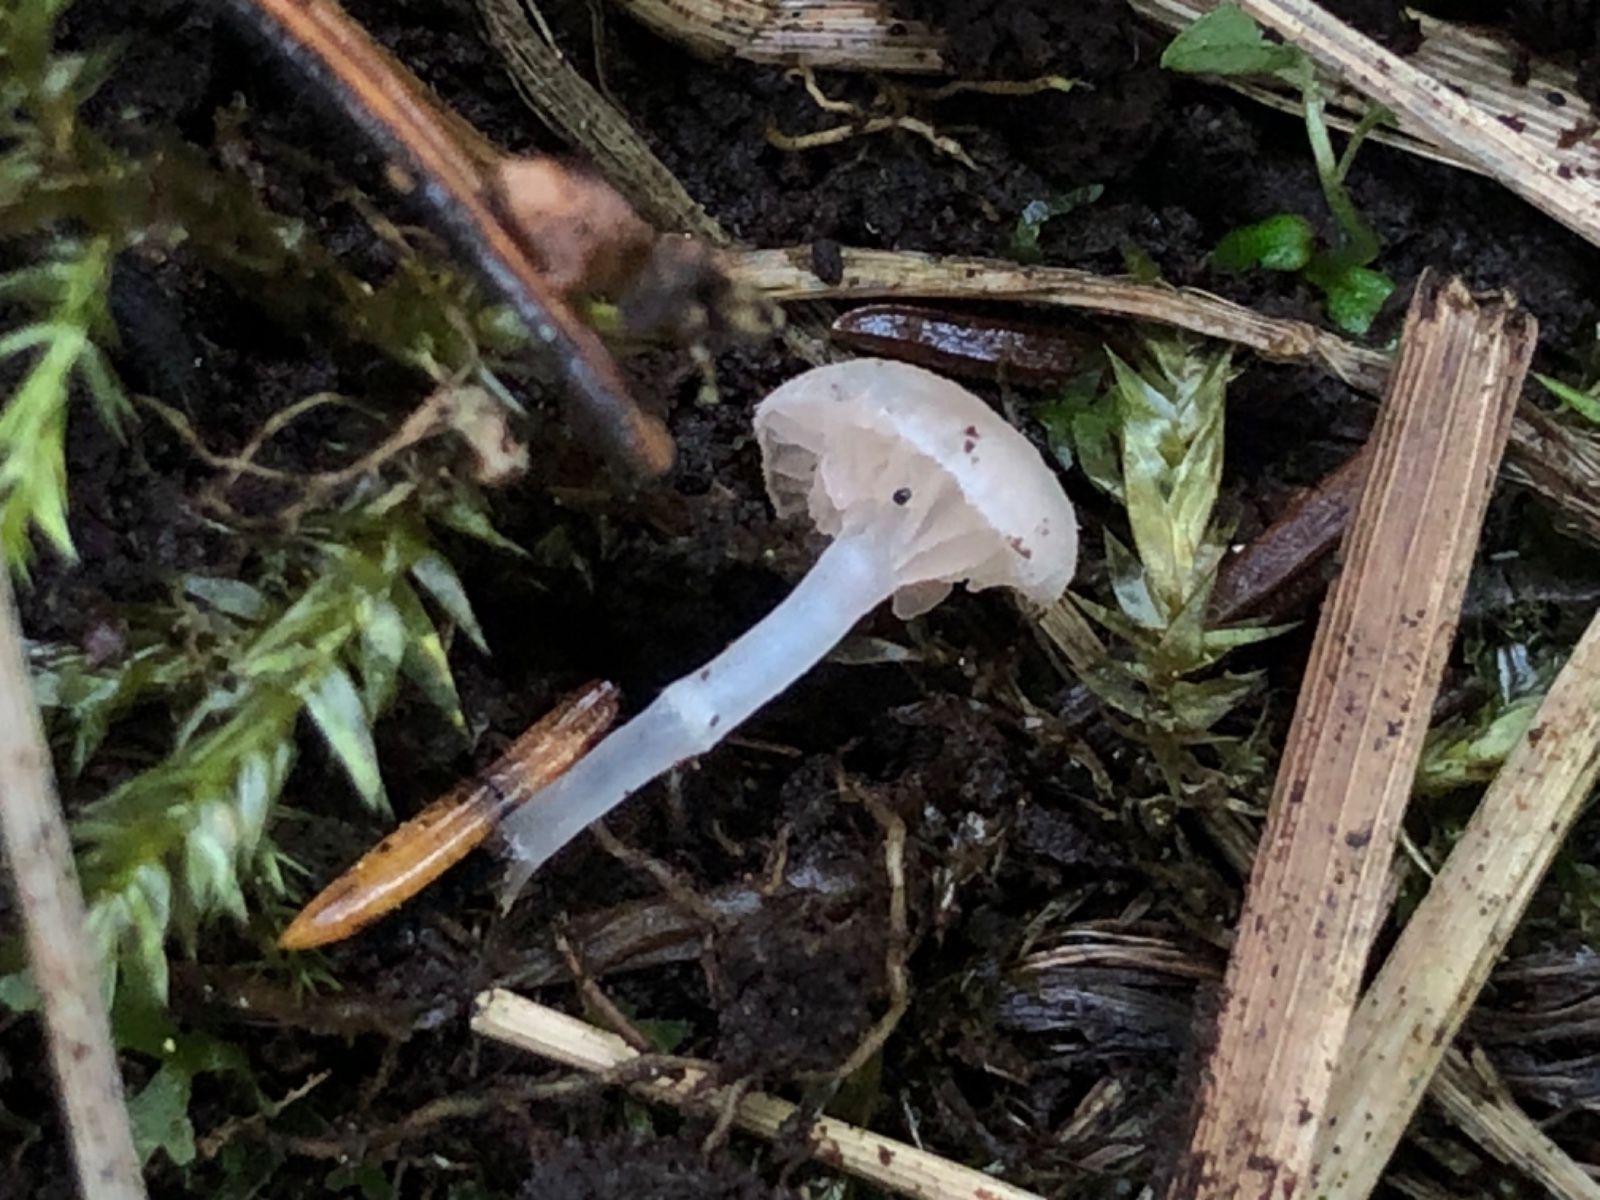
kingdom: Fungi
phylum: Basidiomycota
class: Agaricomycetes
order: Agaricales
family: Entolomataceae
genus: Entoloma
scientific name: Entoloma
